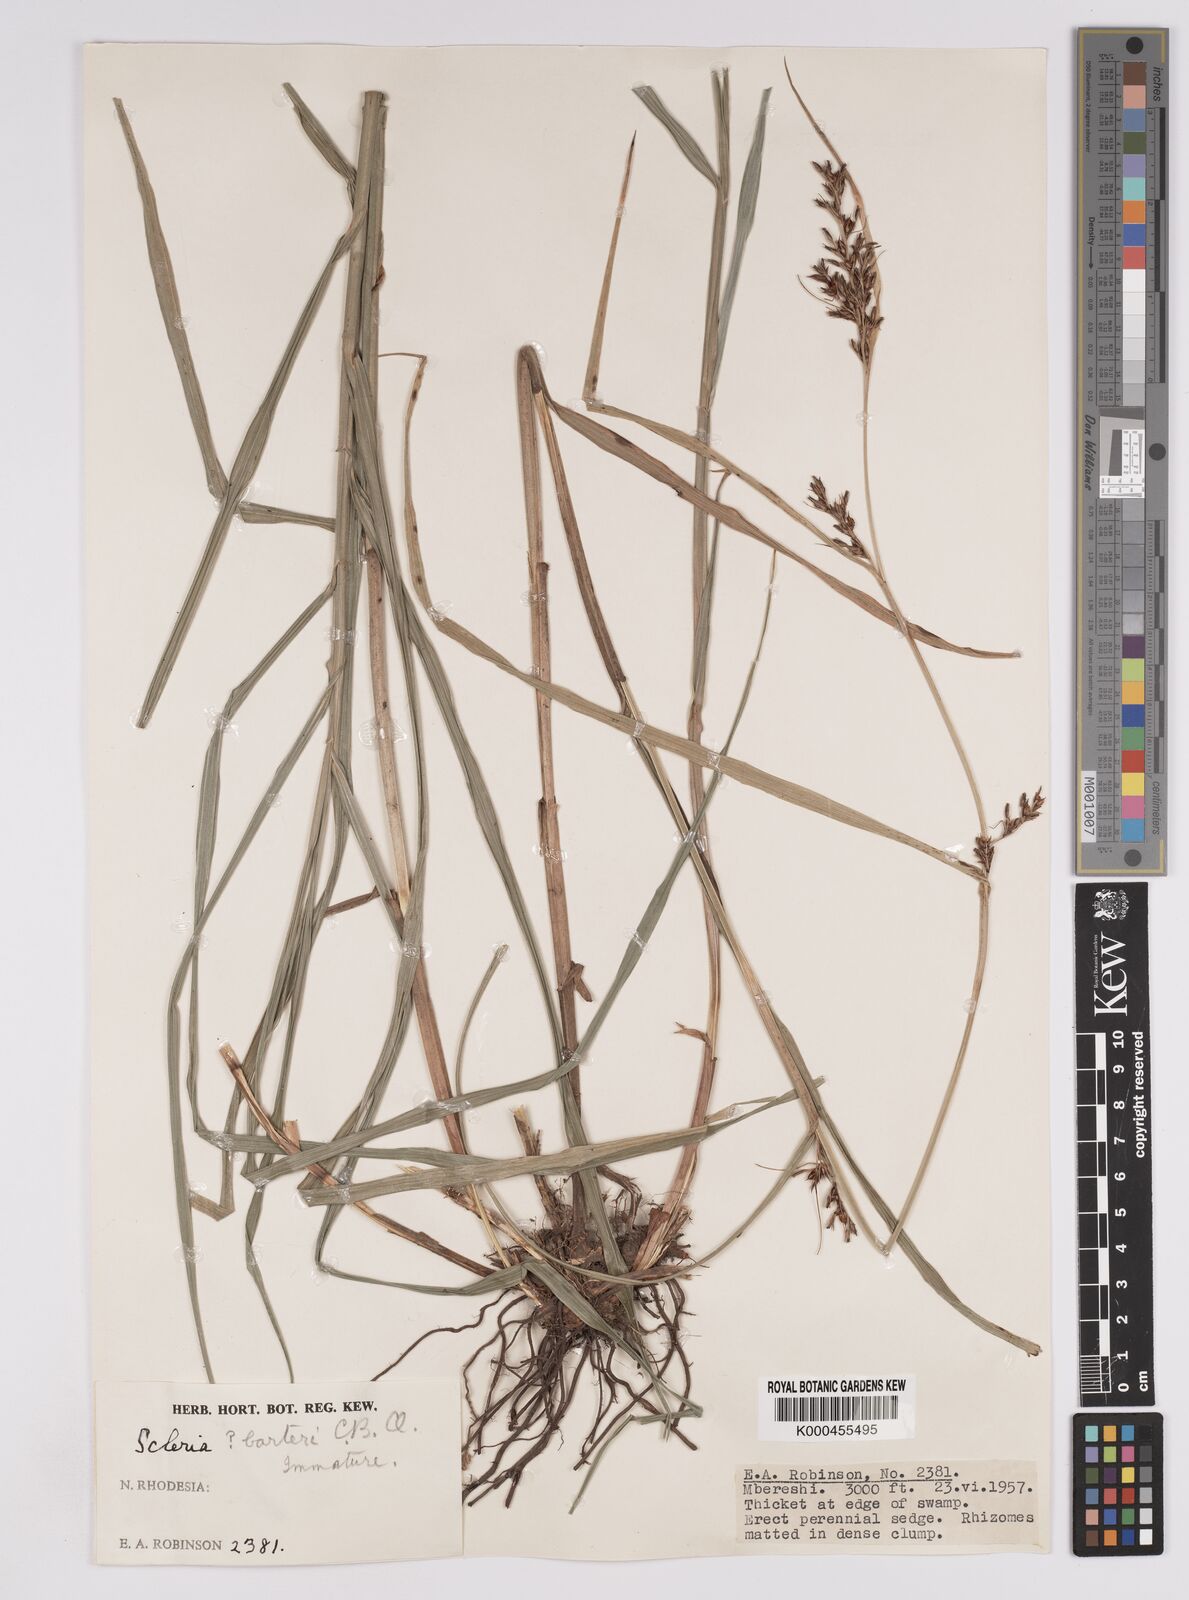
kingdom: Plantae
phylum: Tracheophyta
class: Liliopsida
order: Poales
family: Cyperaceae
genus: Scleria
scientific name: Scleria iostephana
